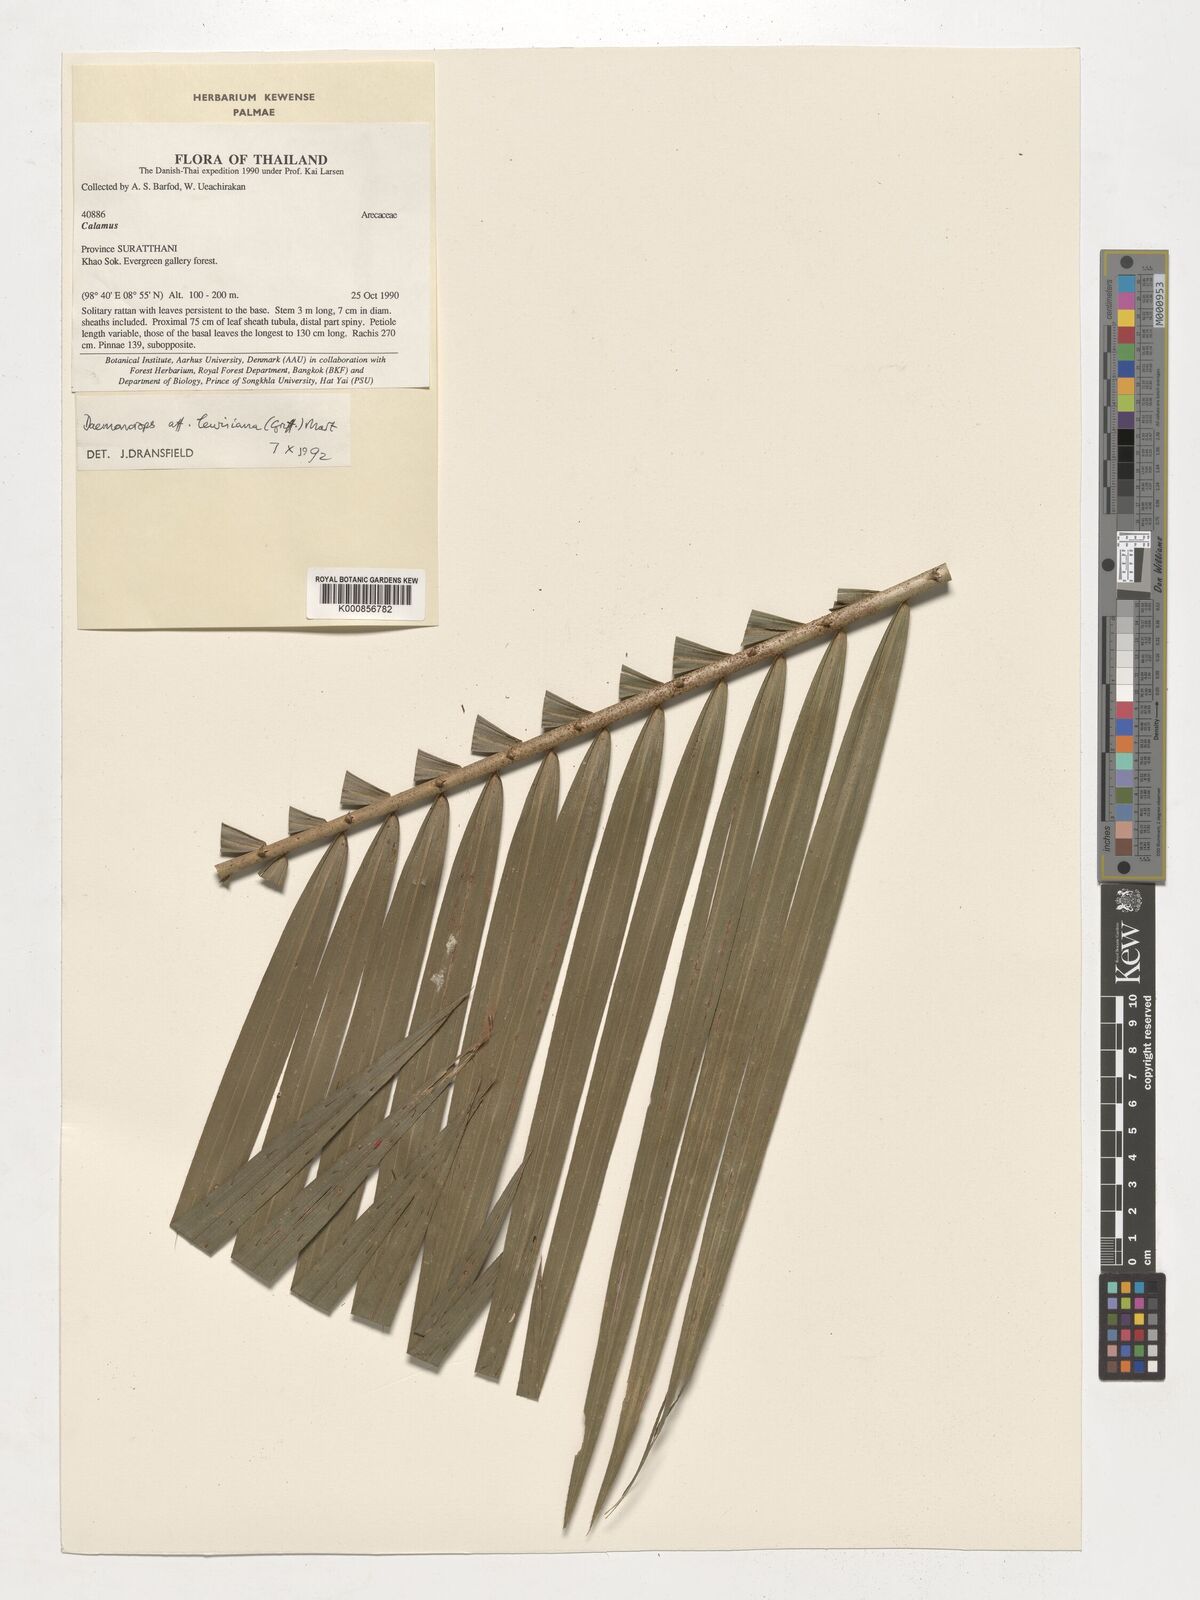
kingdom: Plantae
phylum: Tracheophyta
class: Liliopsida
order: Arecales
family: Arecaceae
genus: Calamus
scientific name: Calamus melanochaetes
